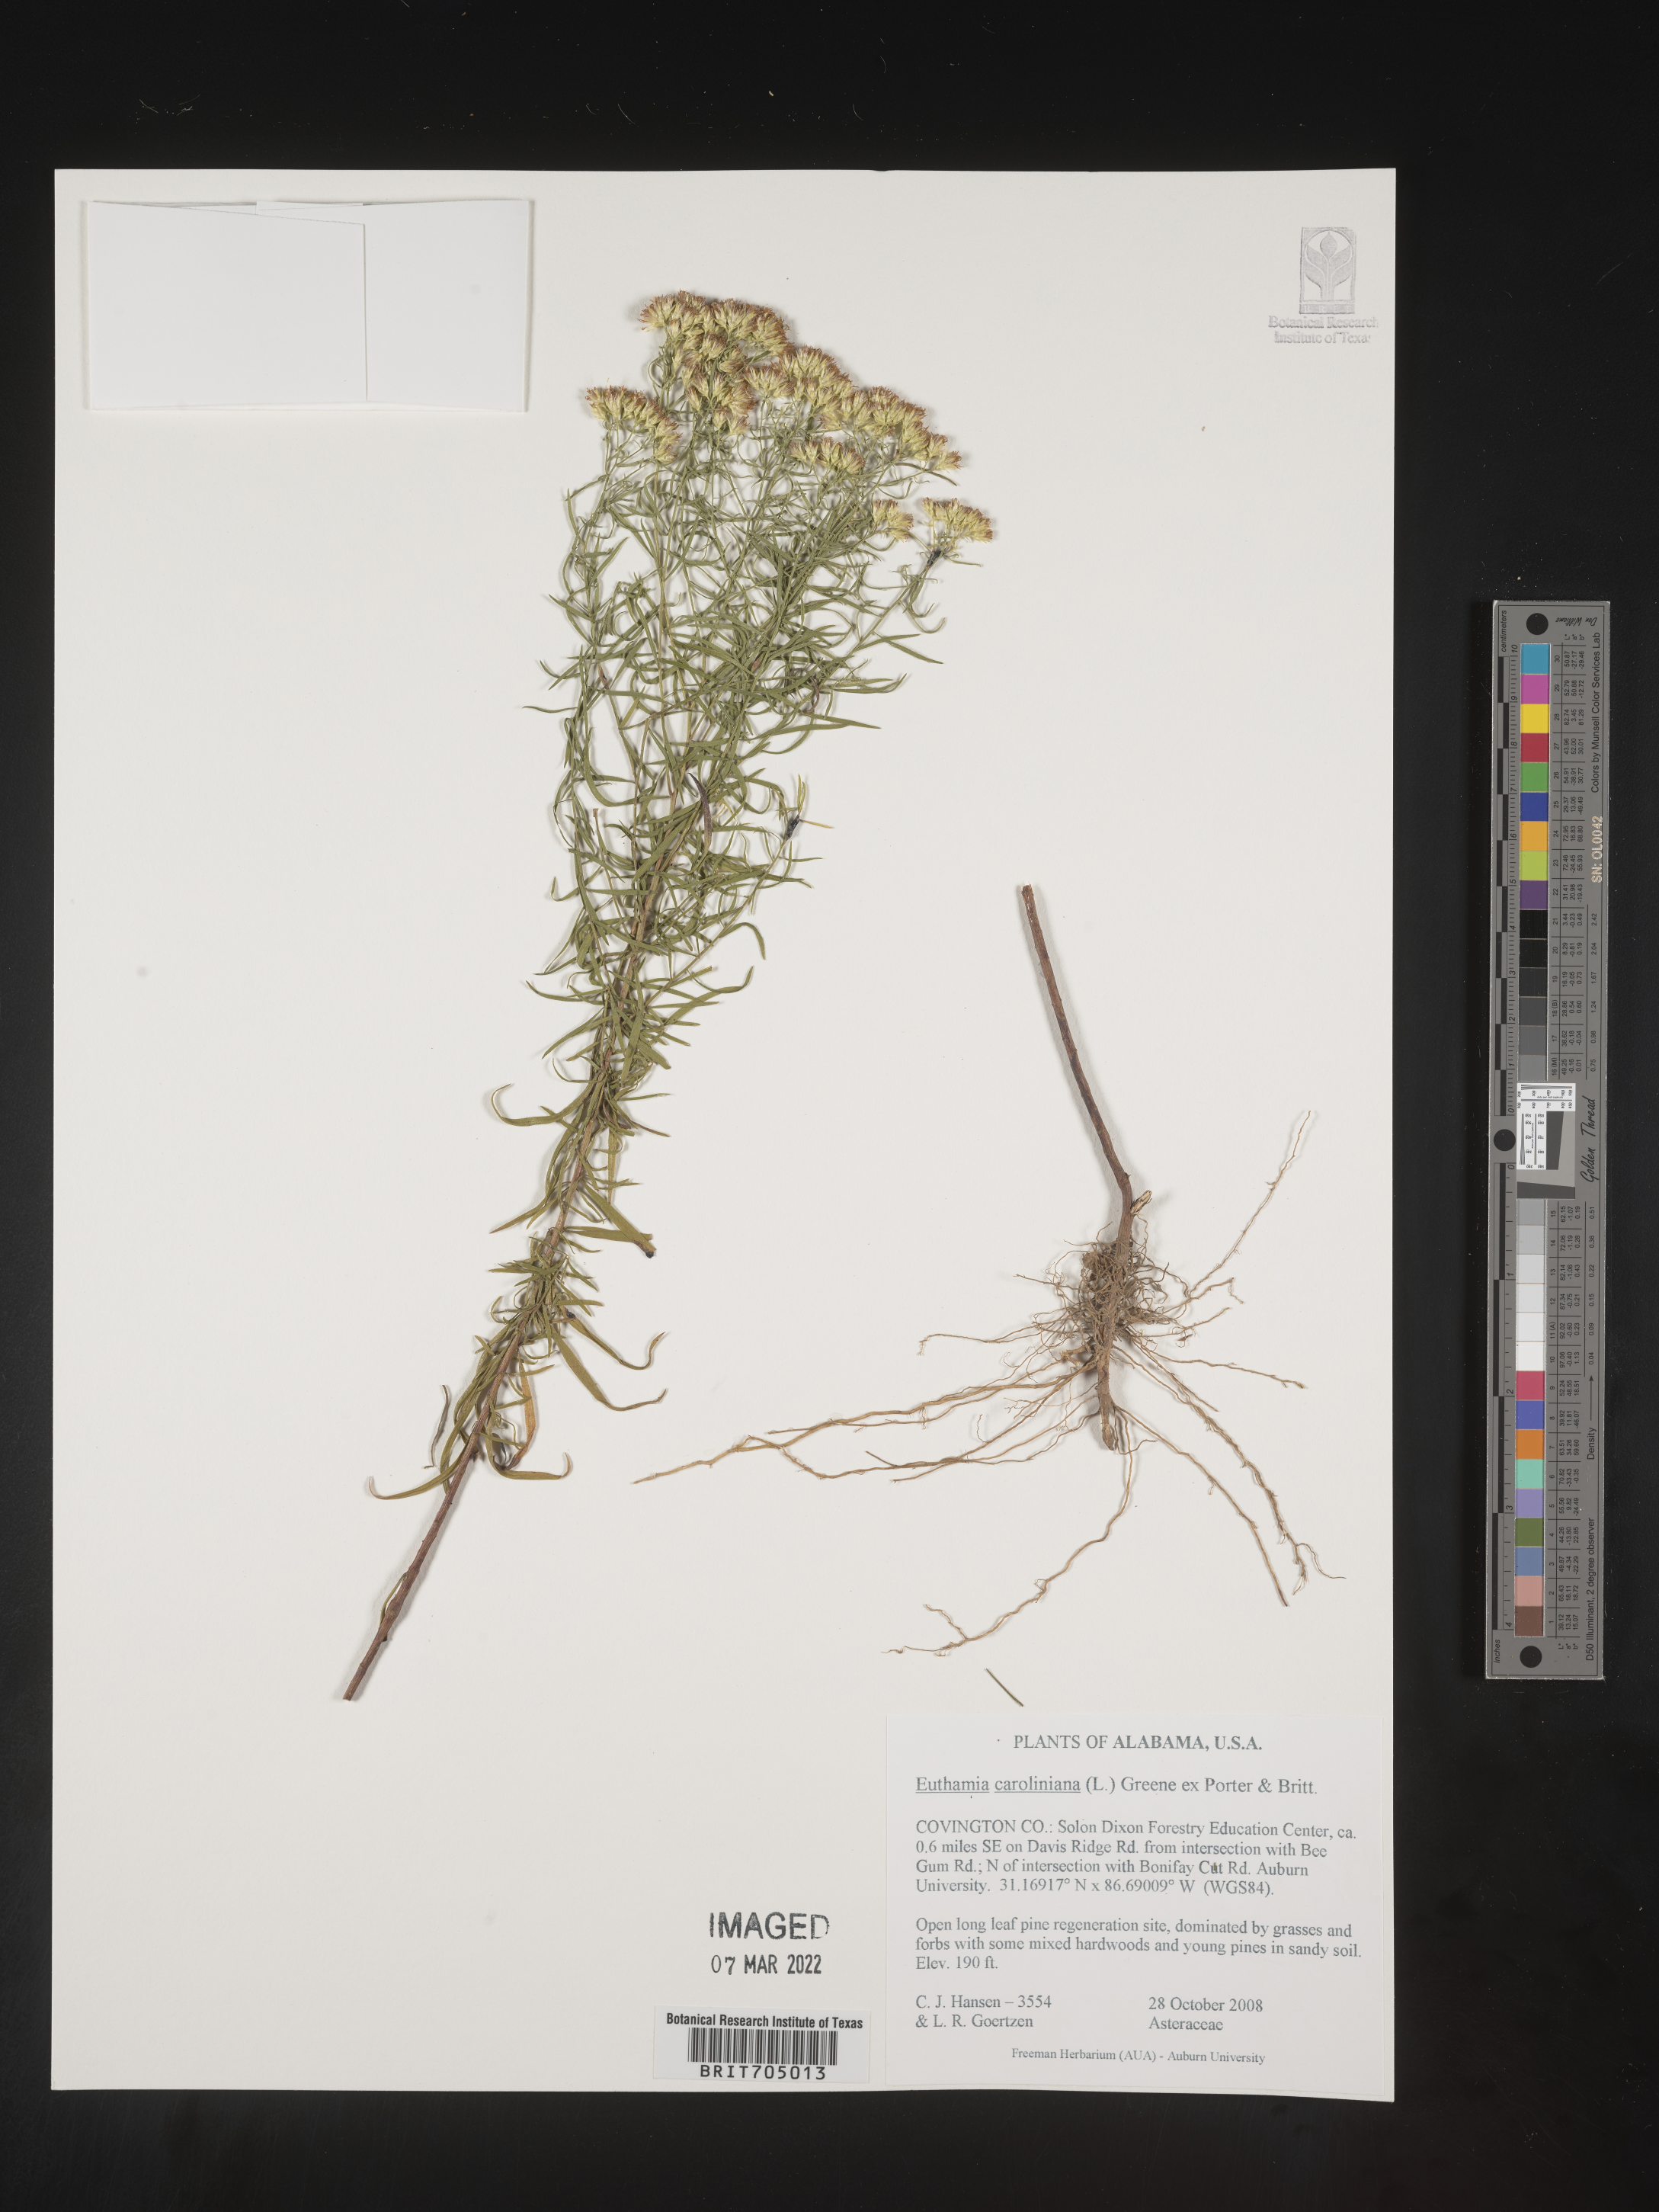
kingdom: Plantae
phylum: Tracheophyta
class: Magnoliopsida
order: Asterales
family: Asteraceae
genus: Euthamia
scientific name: Euthamia caroliniana
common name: Coastal plain goldentop
